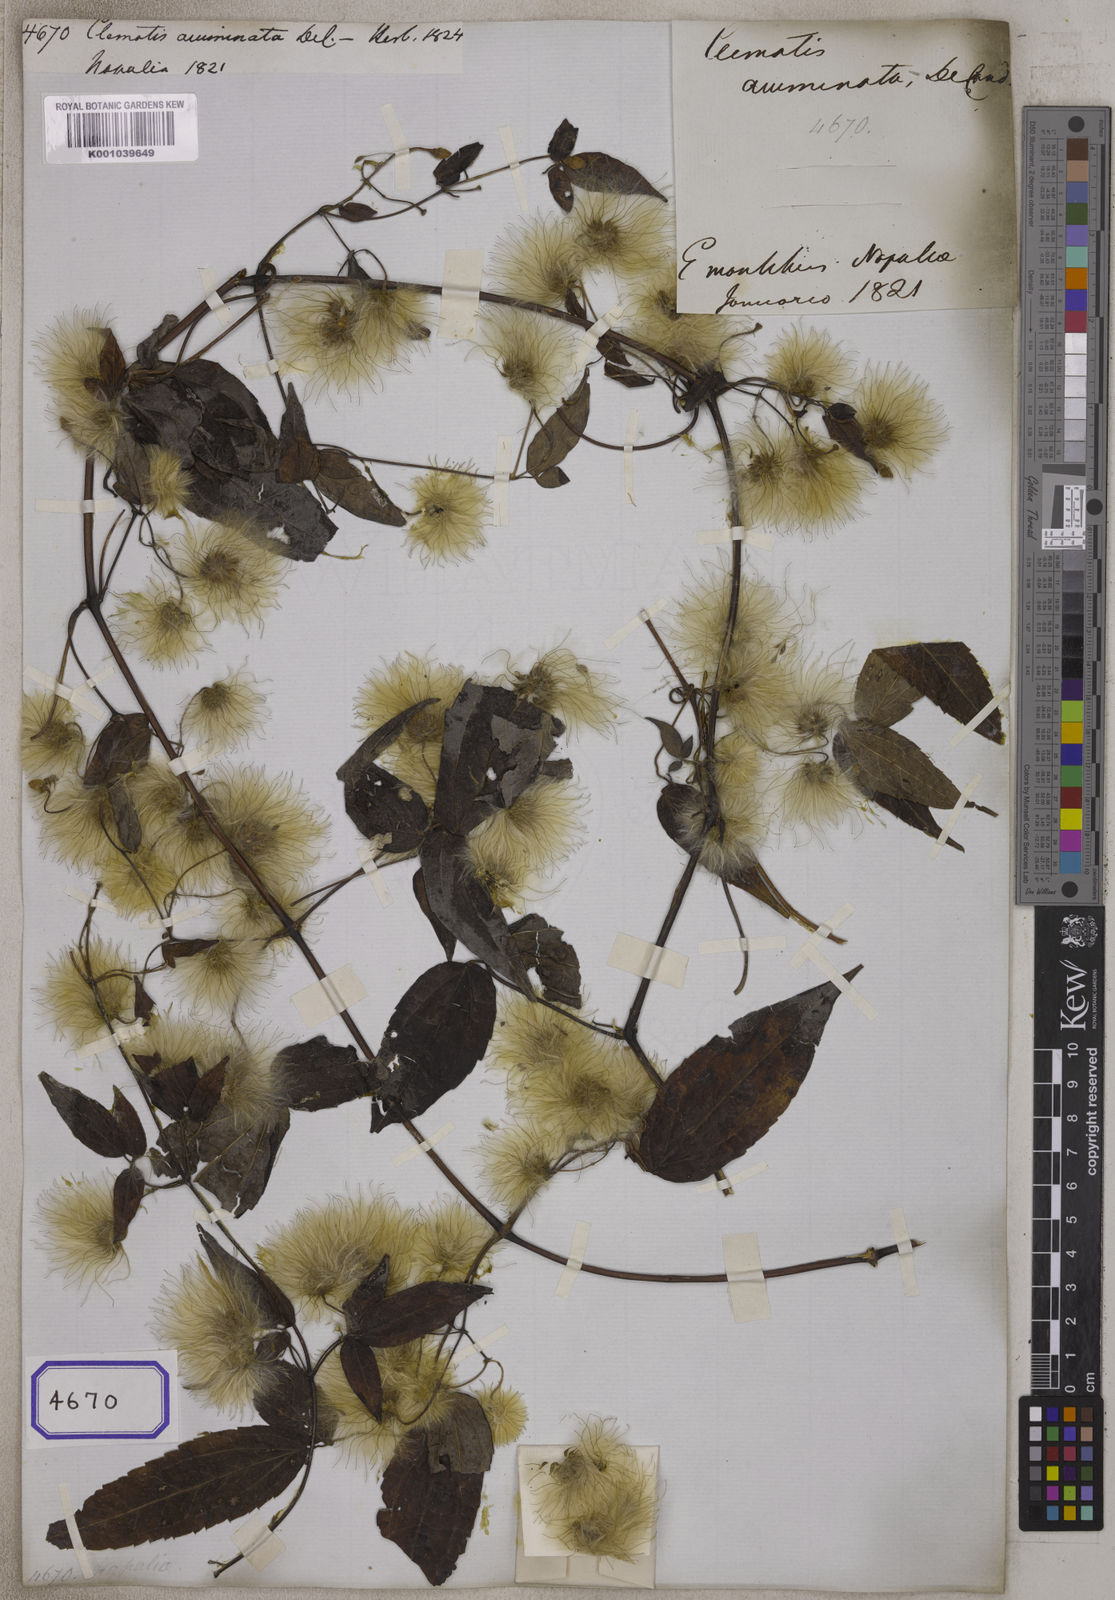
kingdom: Plantae
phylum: Tracheophyta
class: Magnoliopsida
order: Ranunculales
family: Ranunculaceae
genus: Clematis
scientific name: Clematis acuminata
